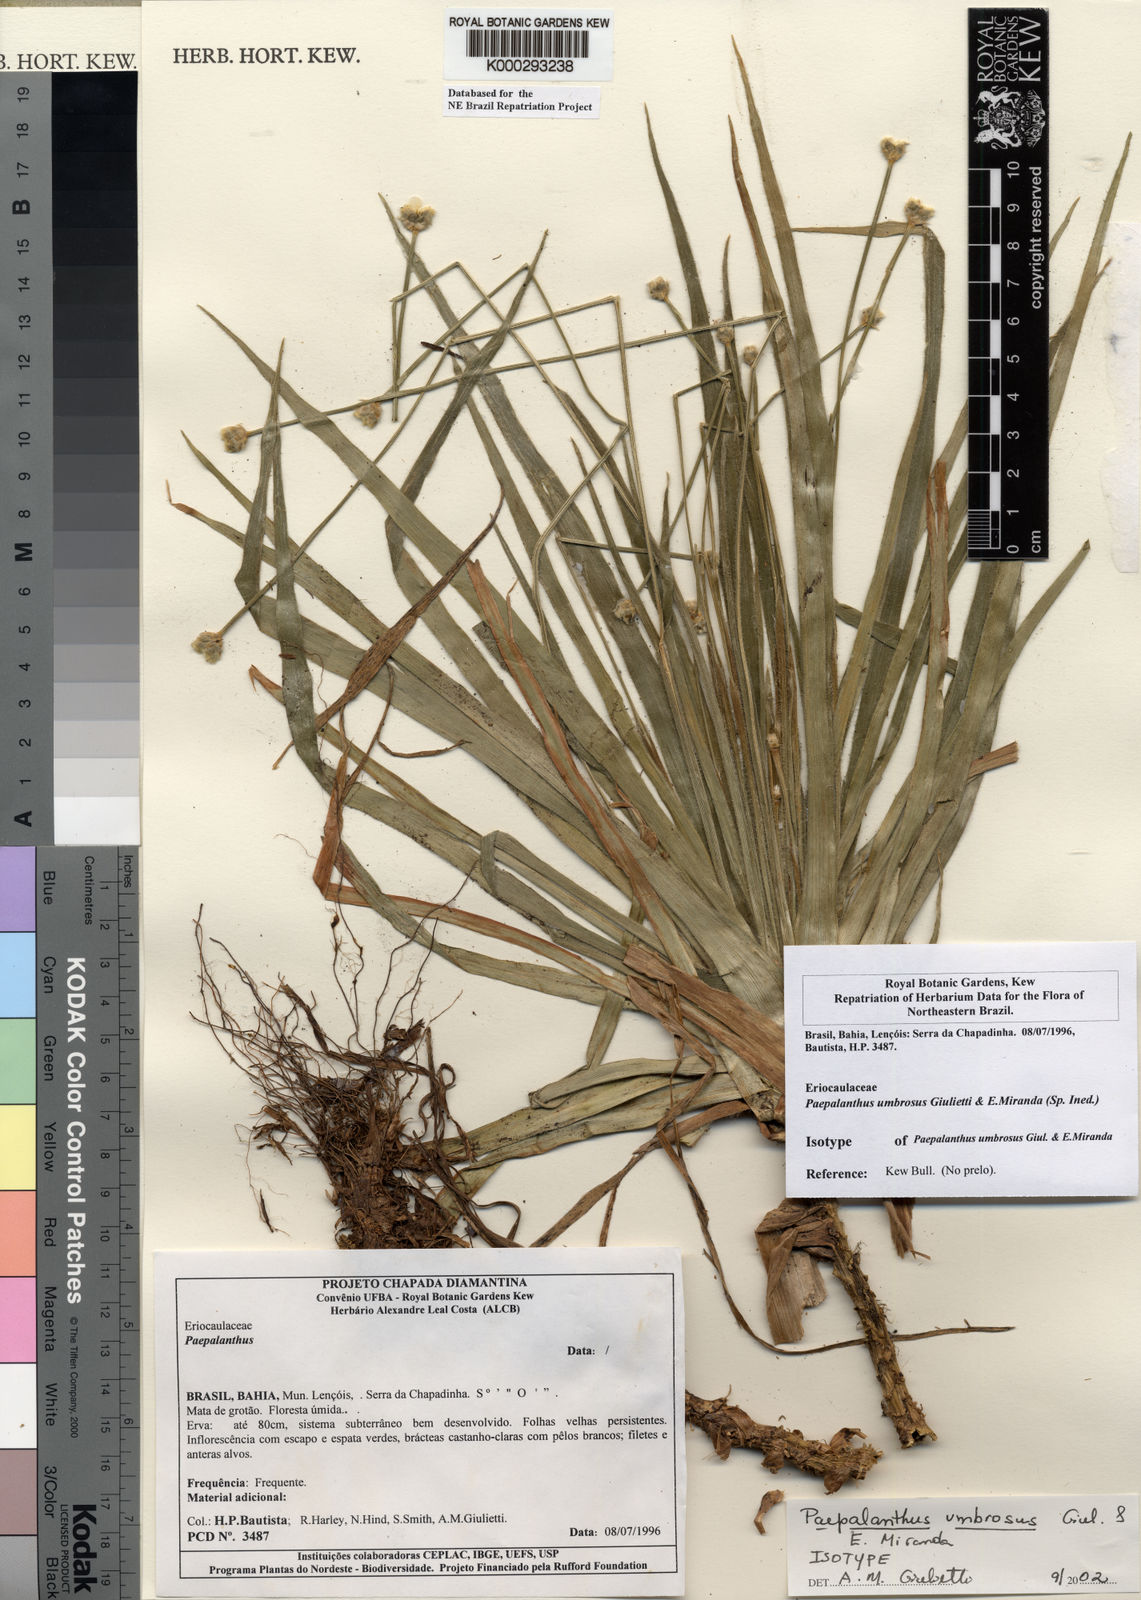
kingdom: Plantae
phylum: Tracheophyta
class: Liliopsida
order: Poales
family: Eriocaulaceae
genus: Paepalanthus
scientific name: Paepalanthus umbrosus
